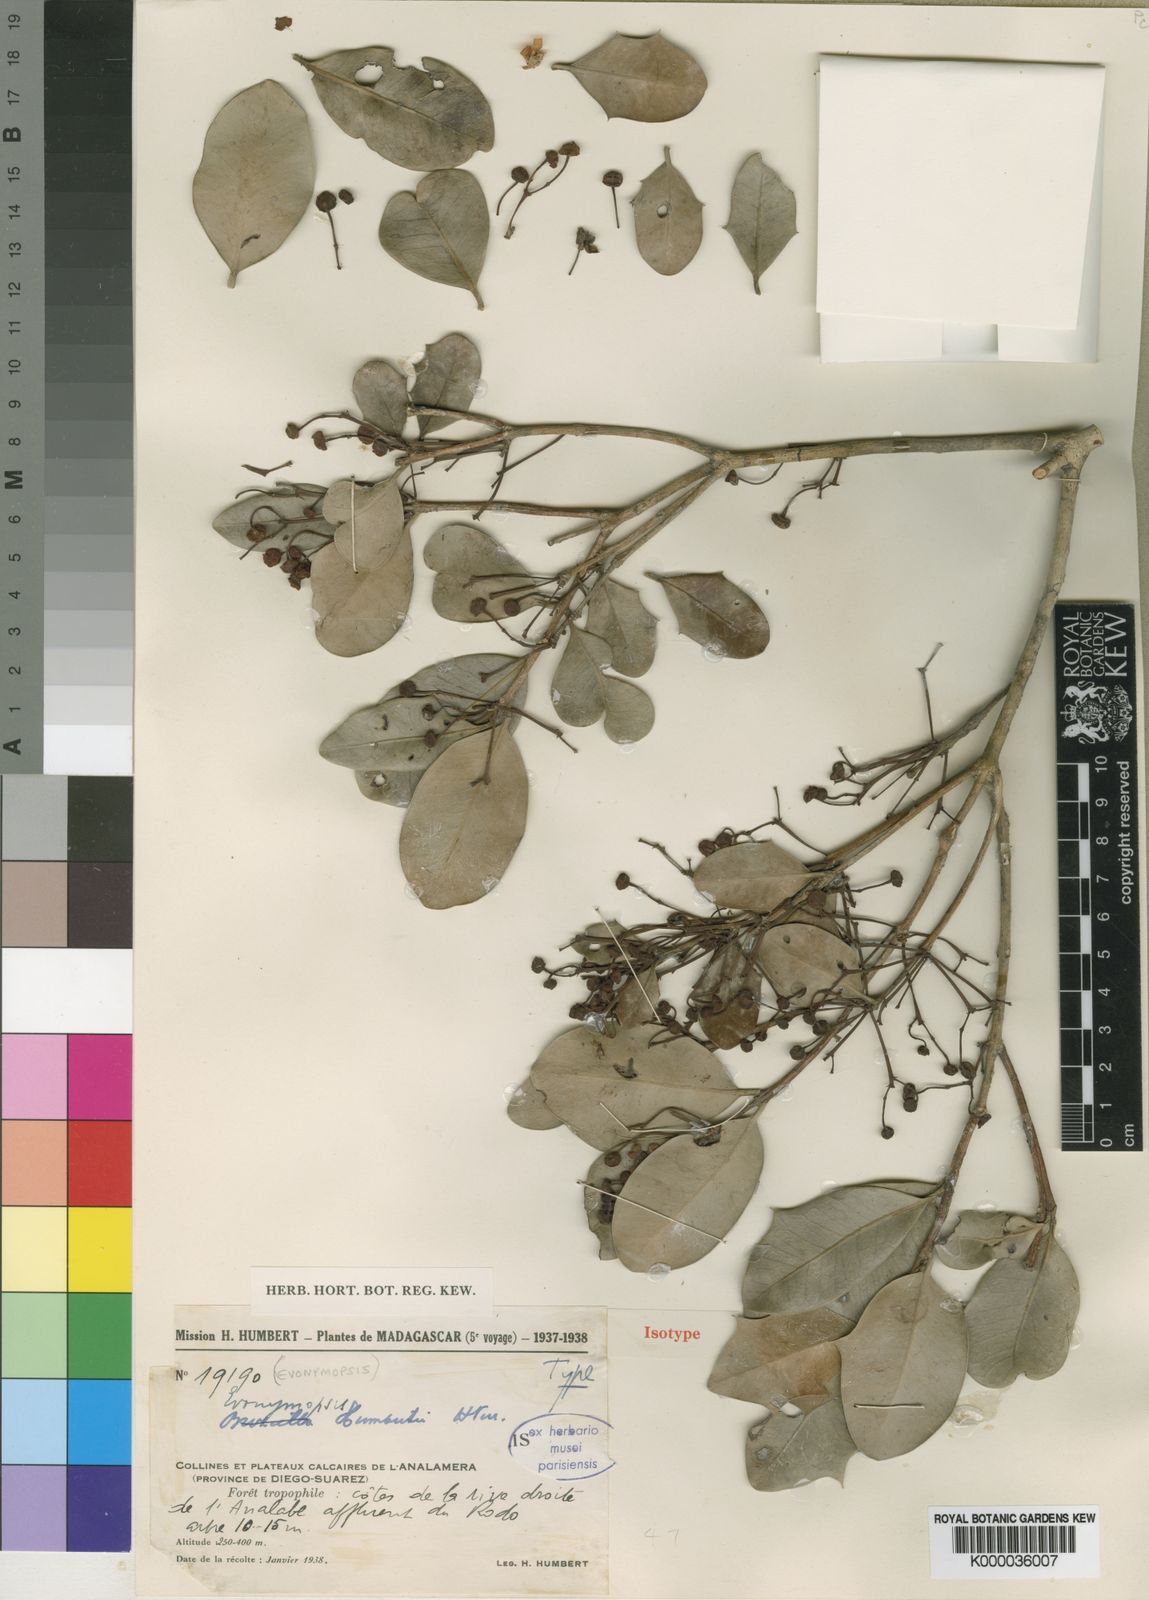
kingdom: Plantae
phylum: Tracheophyta
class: Magnoliopsida
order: Celastrales
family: Celastraceae
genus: Evonymopsis
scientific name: Evonymopsis humbertii
